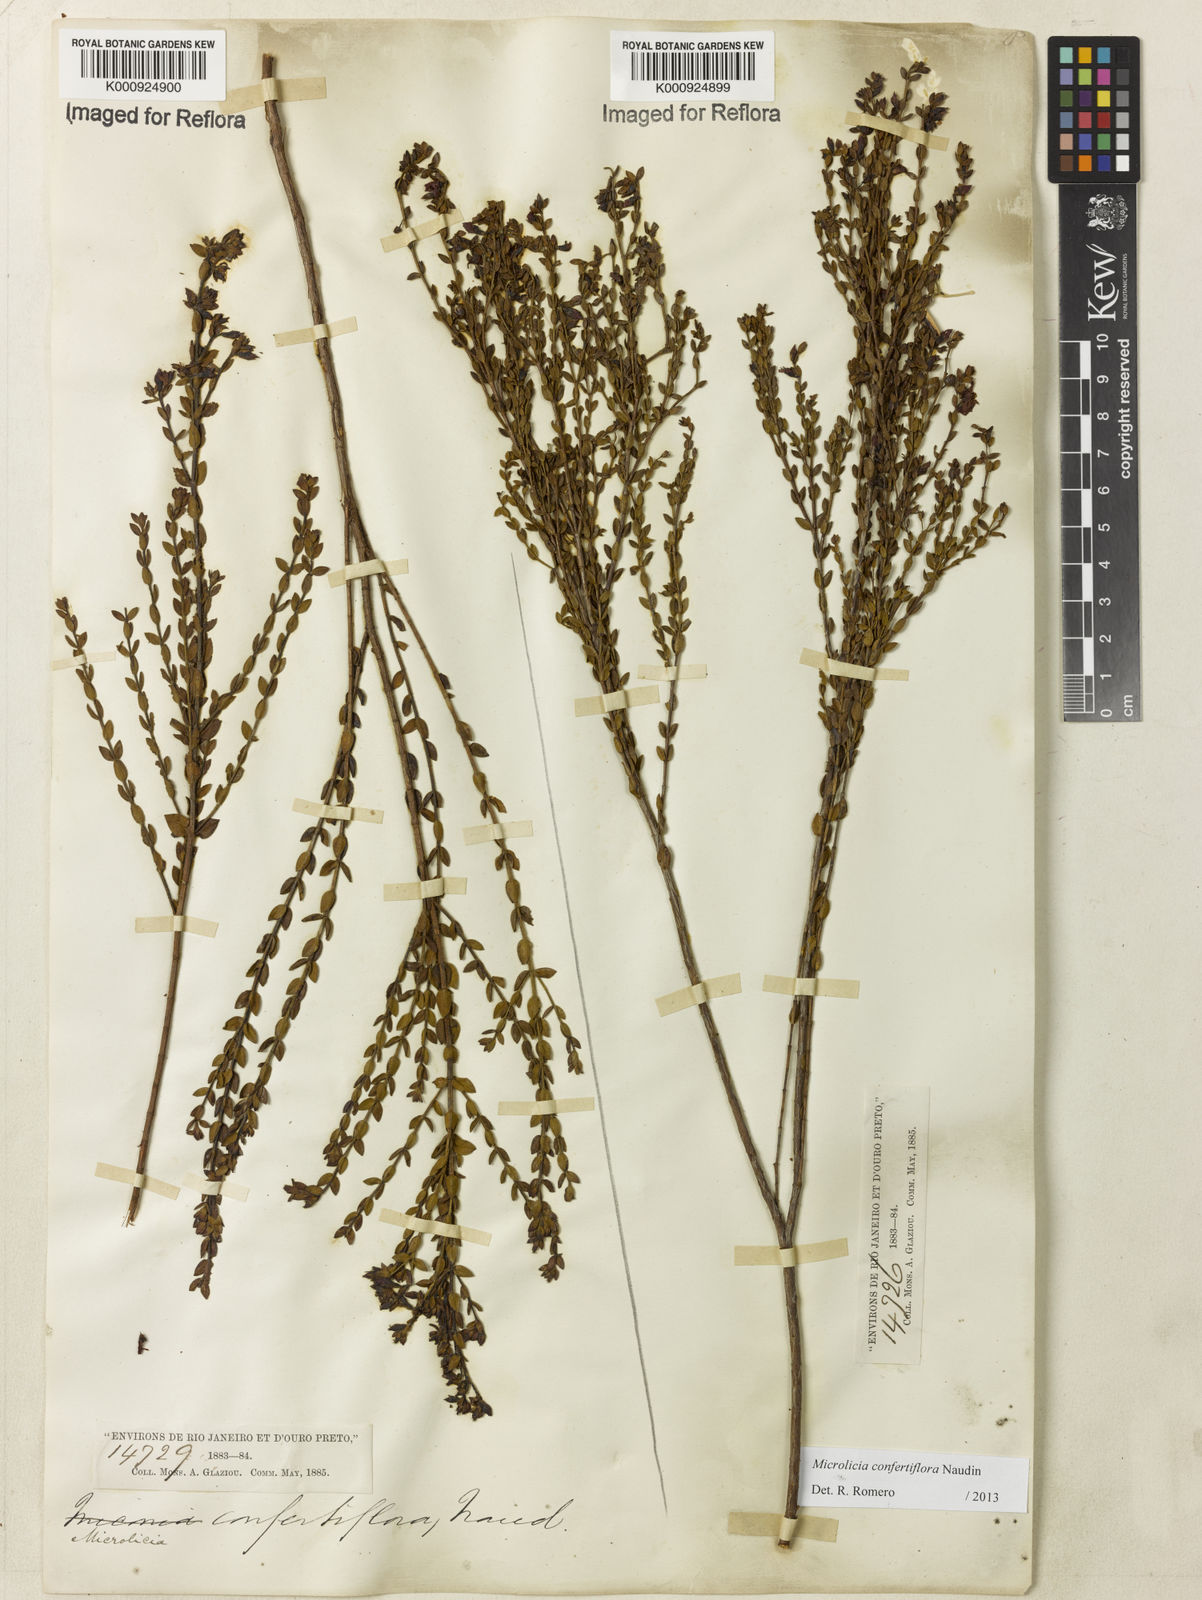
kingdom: Plantae
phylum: Tracheophyta
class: Magnoliopsida
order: Myrtales
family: Melastomataceae
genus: Microlicia
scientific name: Microlicia confertiflora
